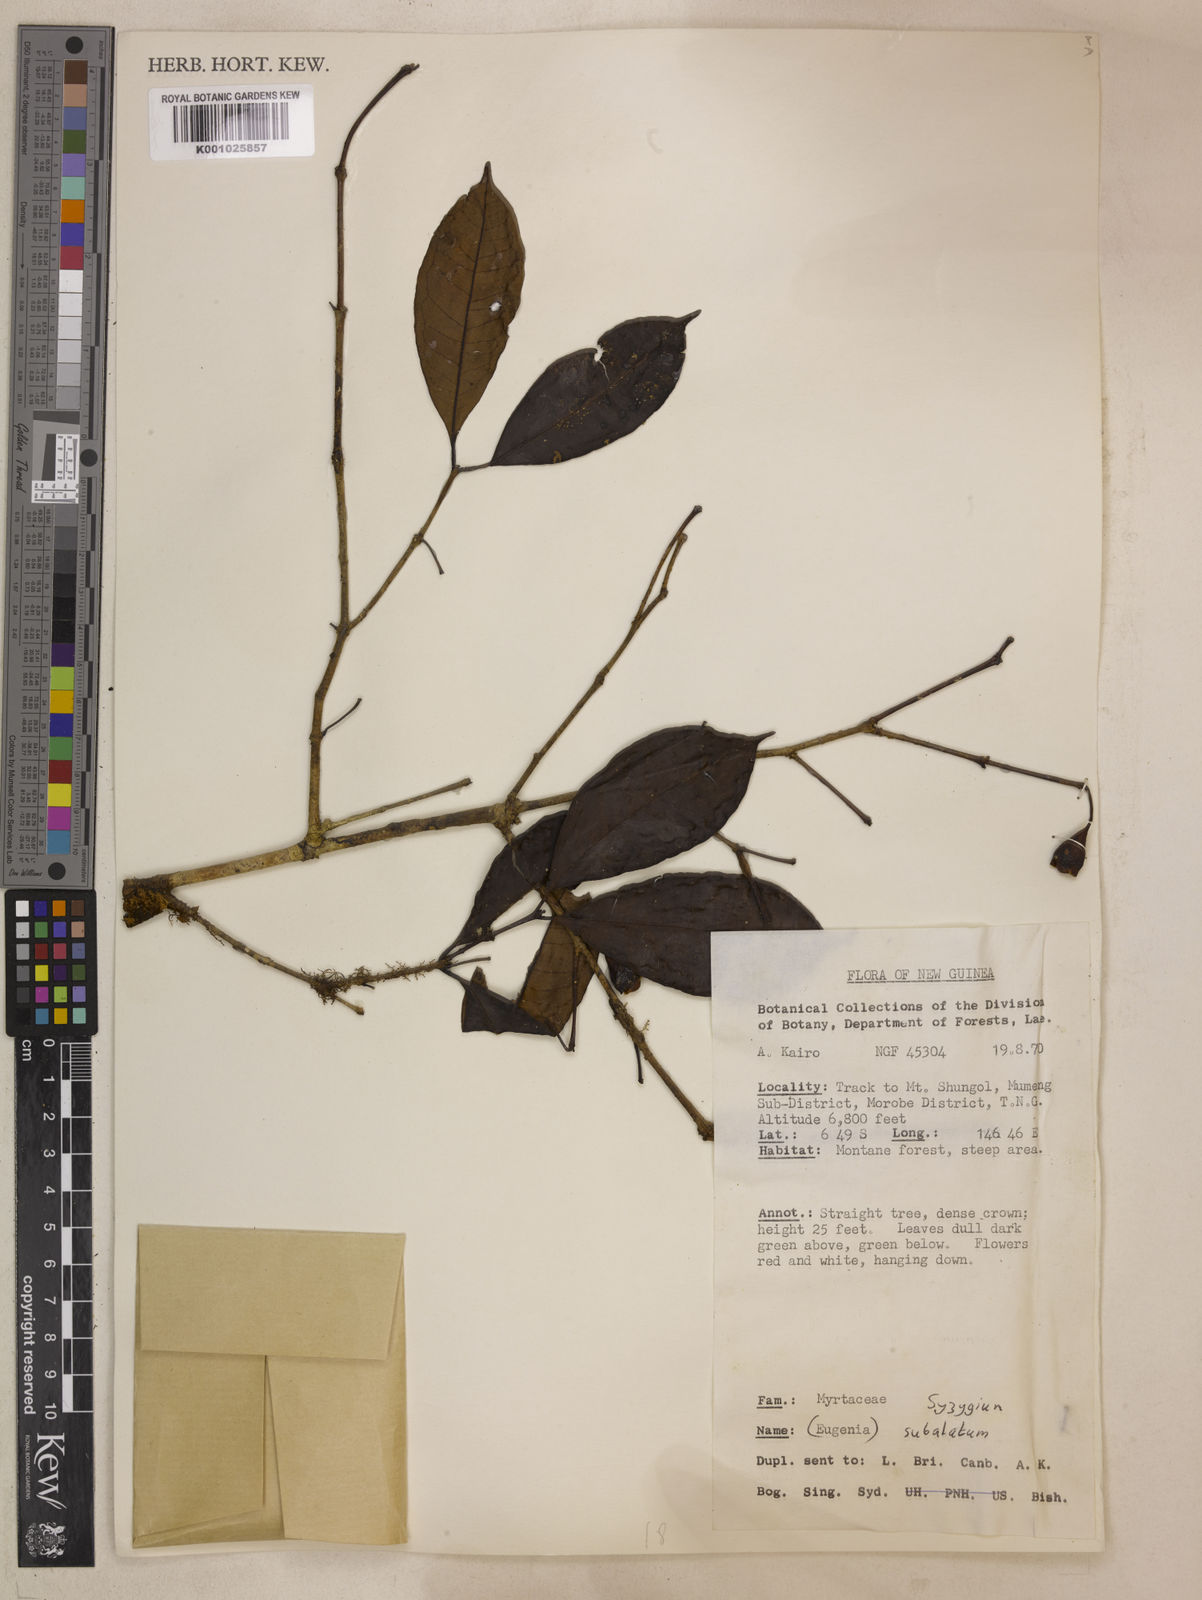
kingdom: Plantae
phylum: Tracheophyta
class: Magnoliopsida
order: Myrtales
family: Myrtaceae
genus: Syzygium
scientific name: Syzygium subalatum
